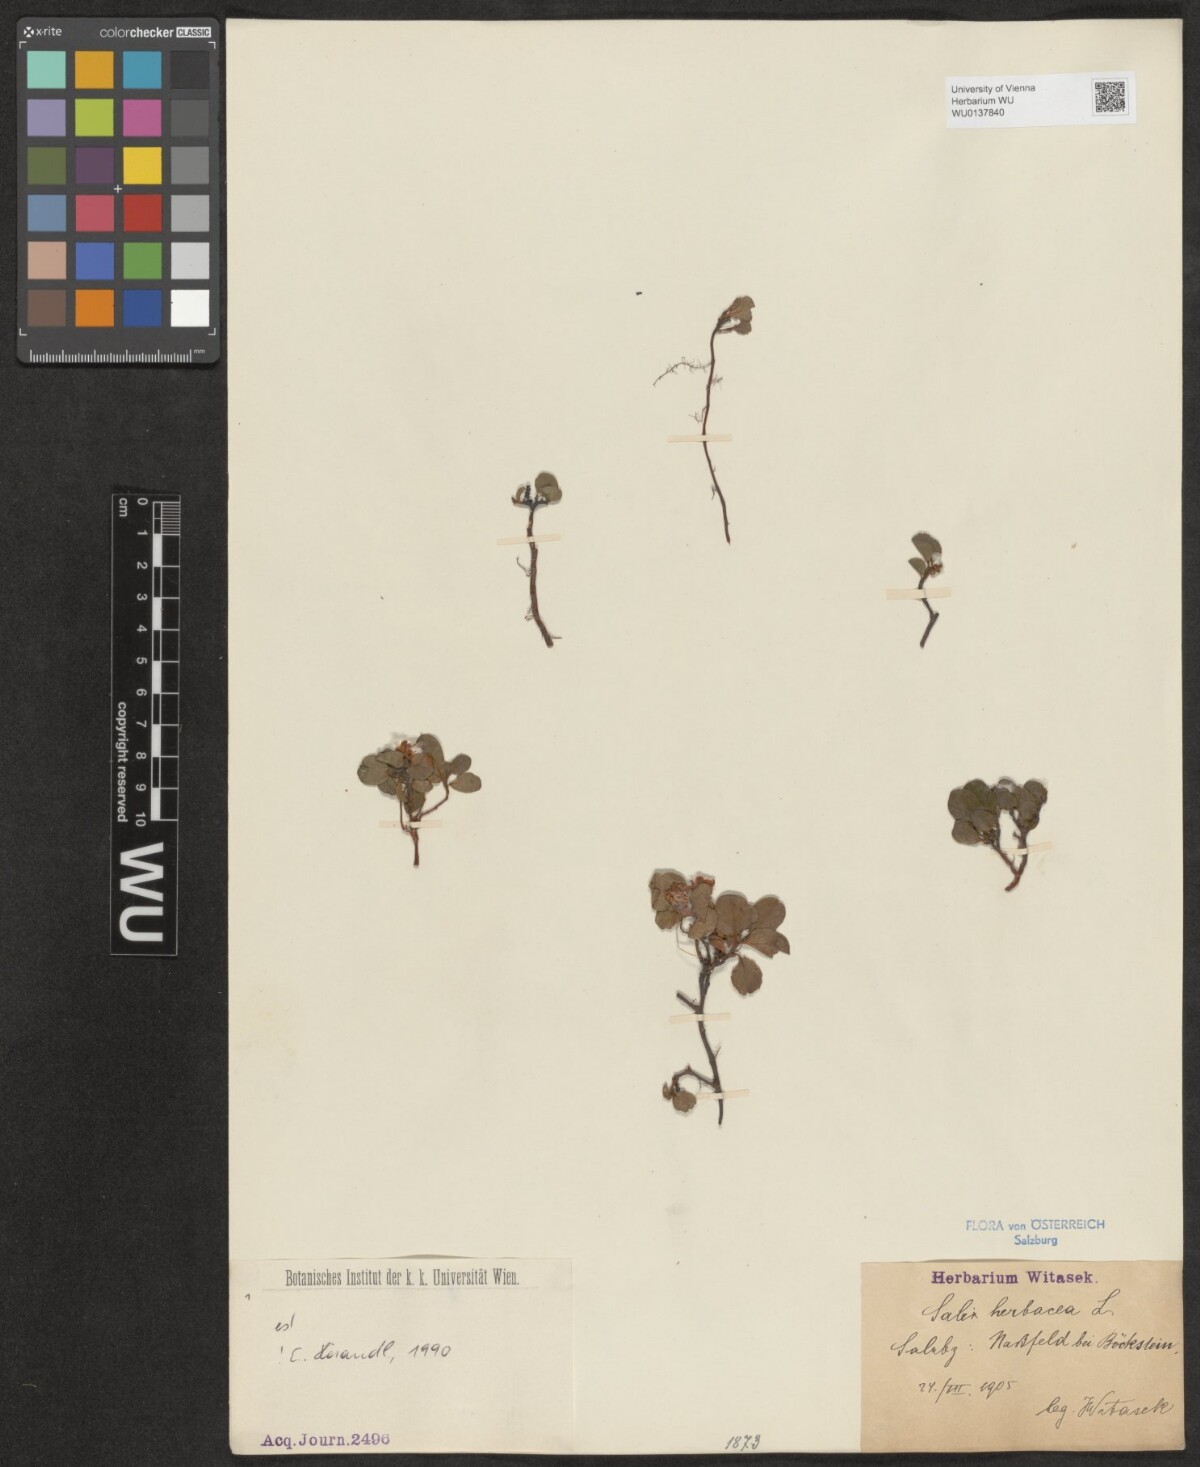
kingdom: Plantae
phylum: Tracheophyta
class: Magnoliopsida
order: Malpighiales
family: Salicaceae
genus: Salix
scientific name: Salix herbacea
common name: Dwarf willow
